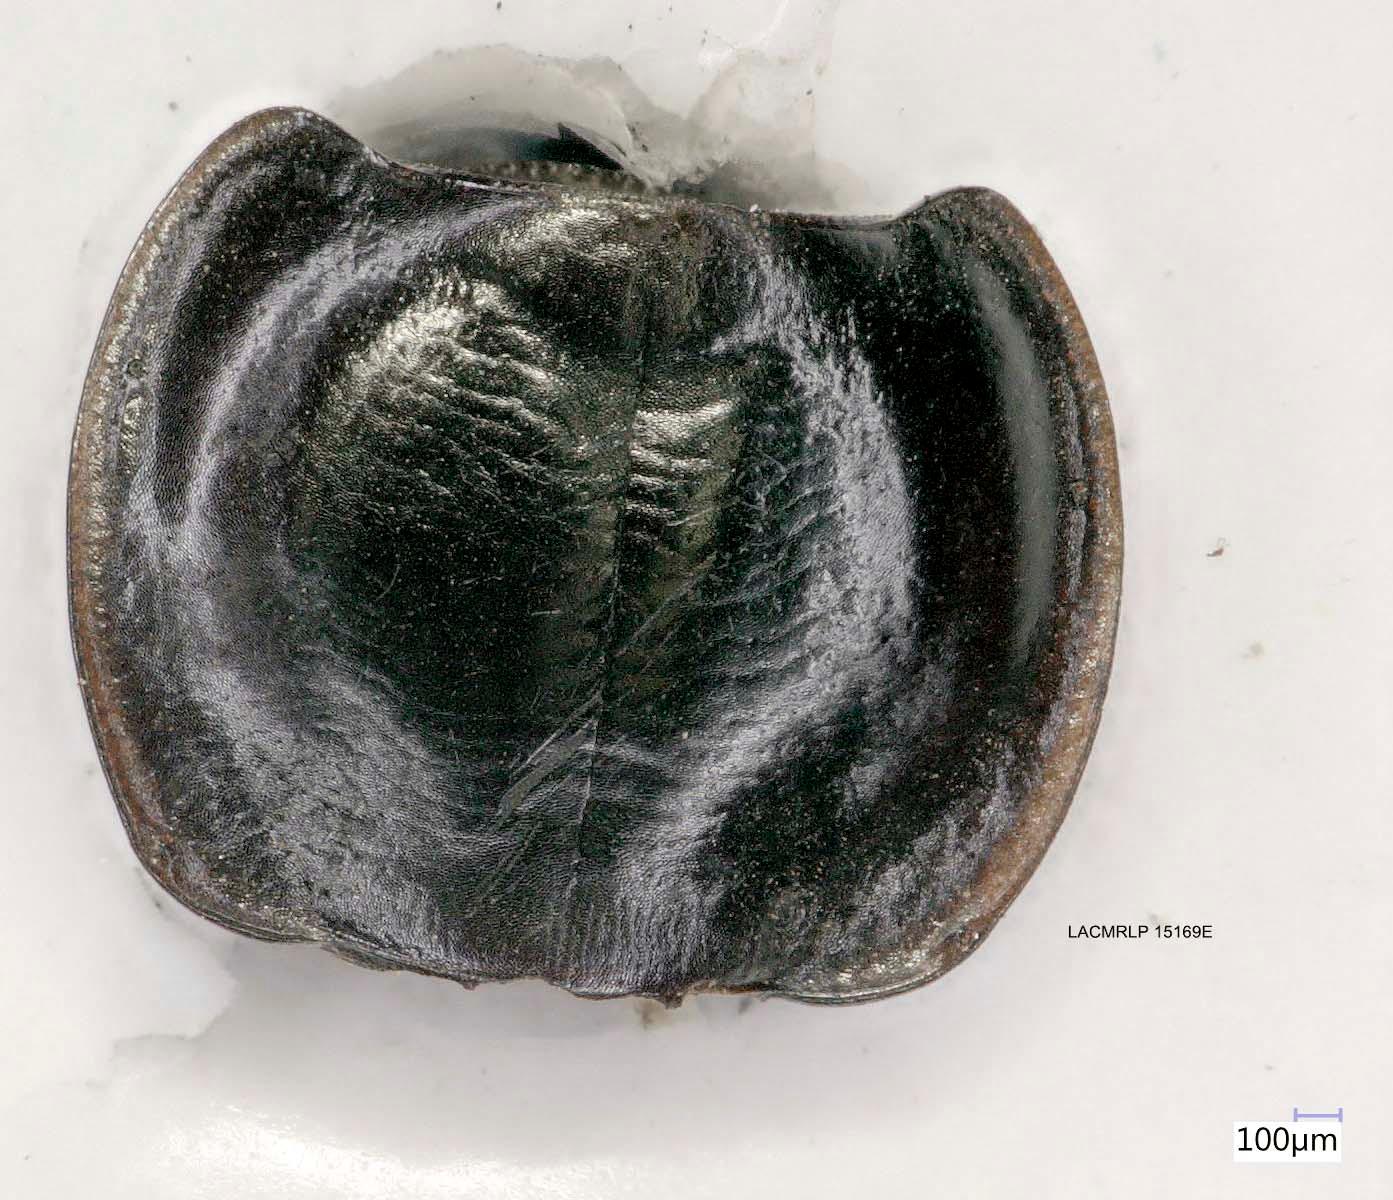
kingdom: Animalia
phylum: Arthropoda
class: Insecta
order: Coleoptera
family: Carabidae
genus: Tanystoma
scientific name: Tanystoma maculicolle
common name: Tule beetle
